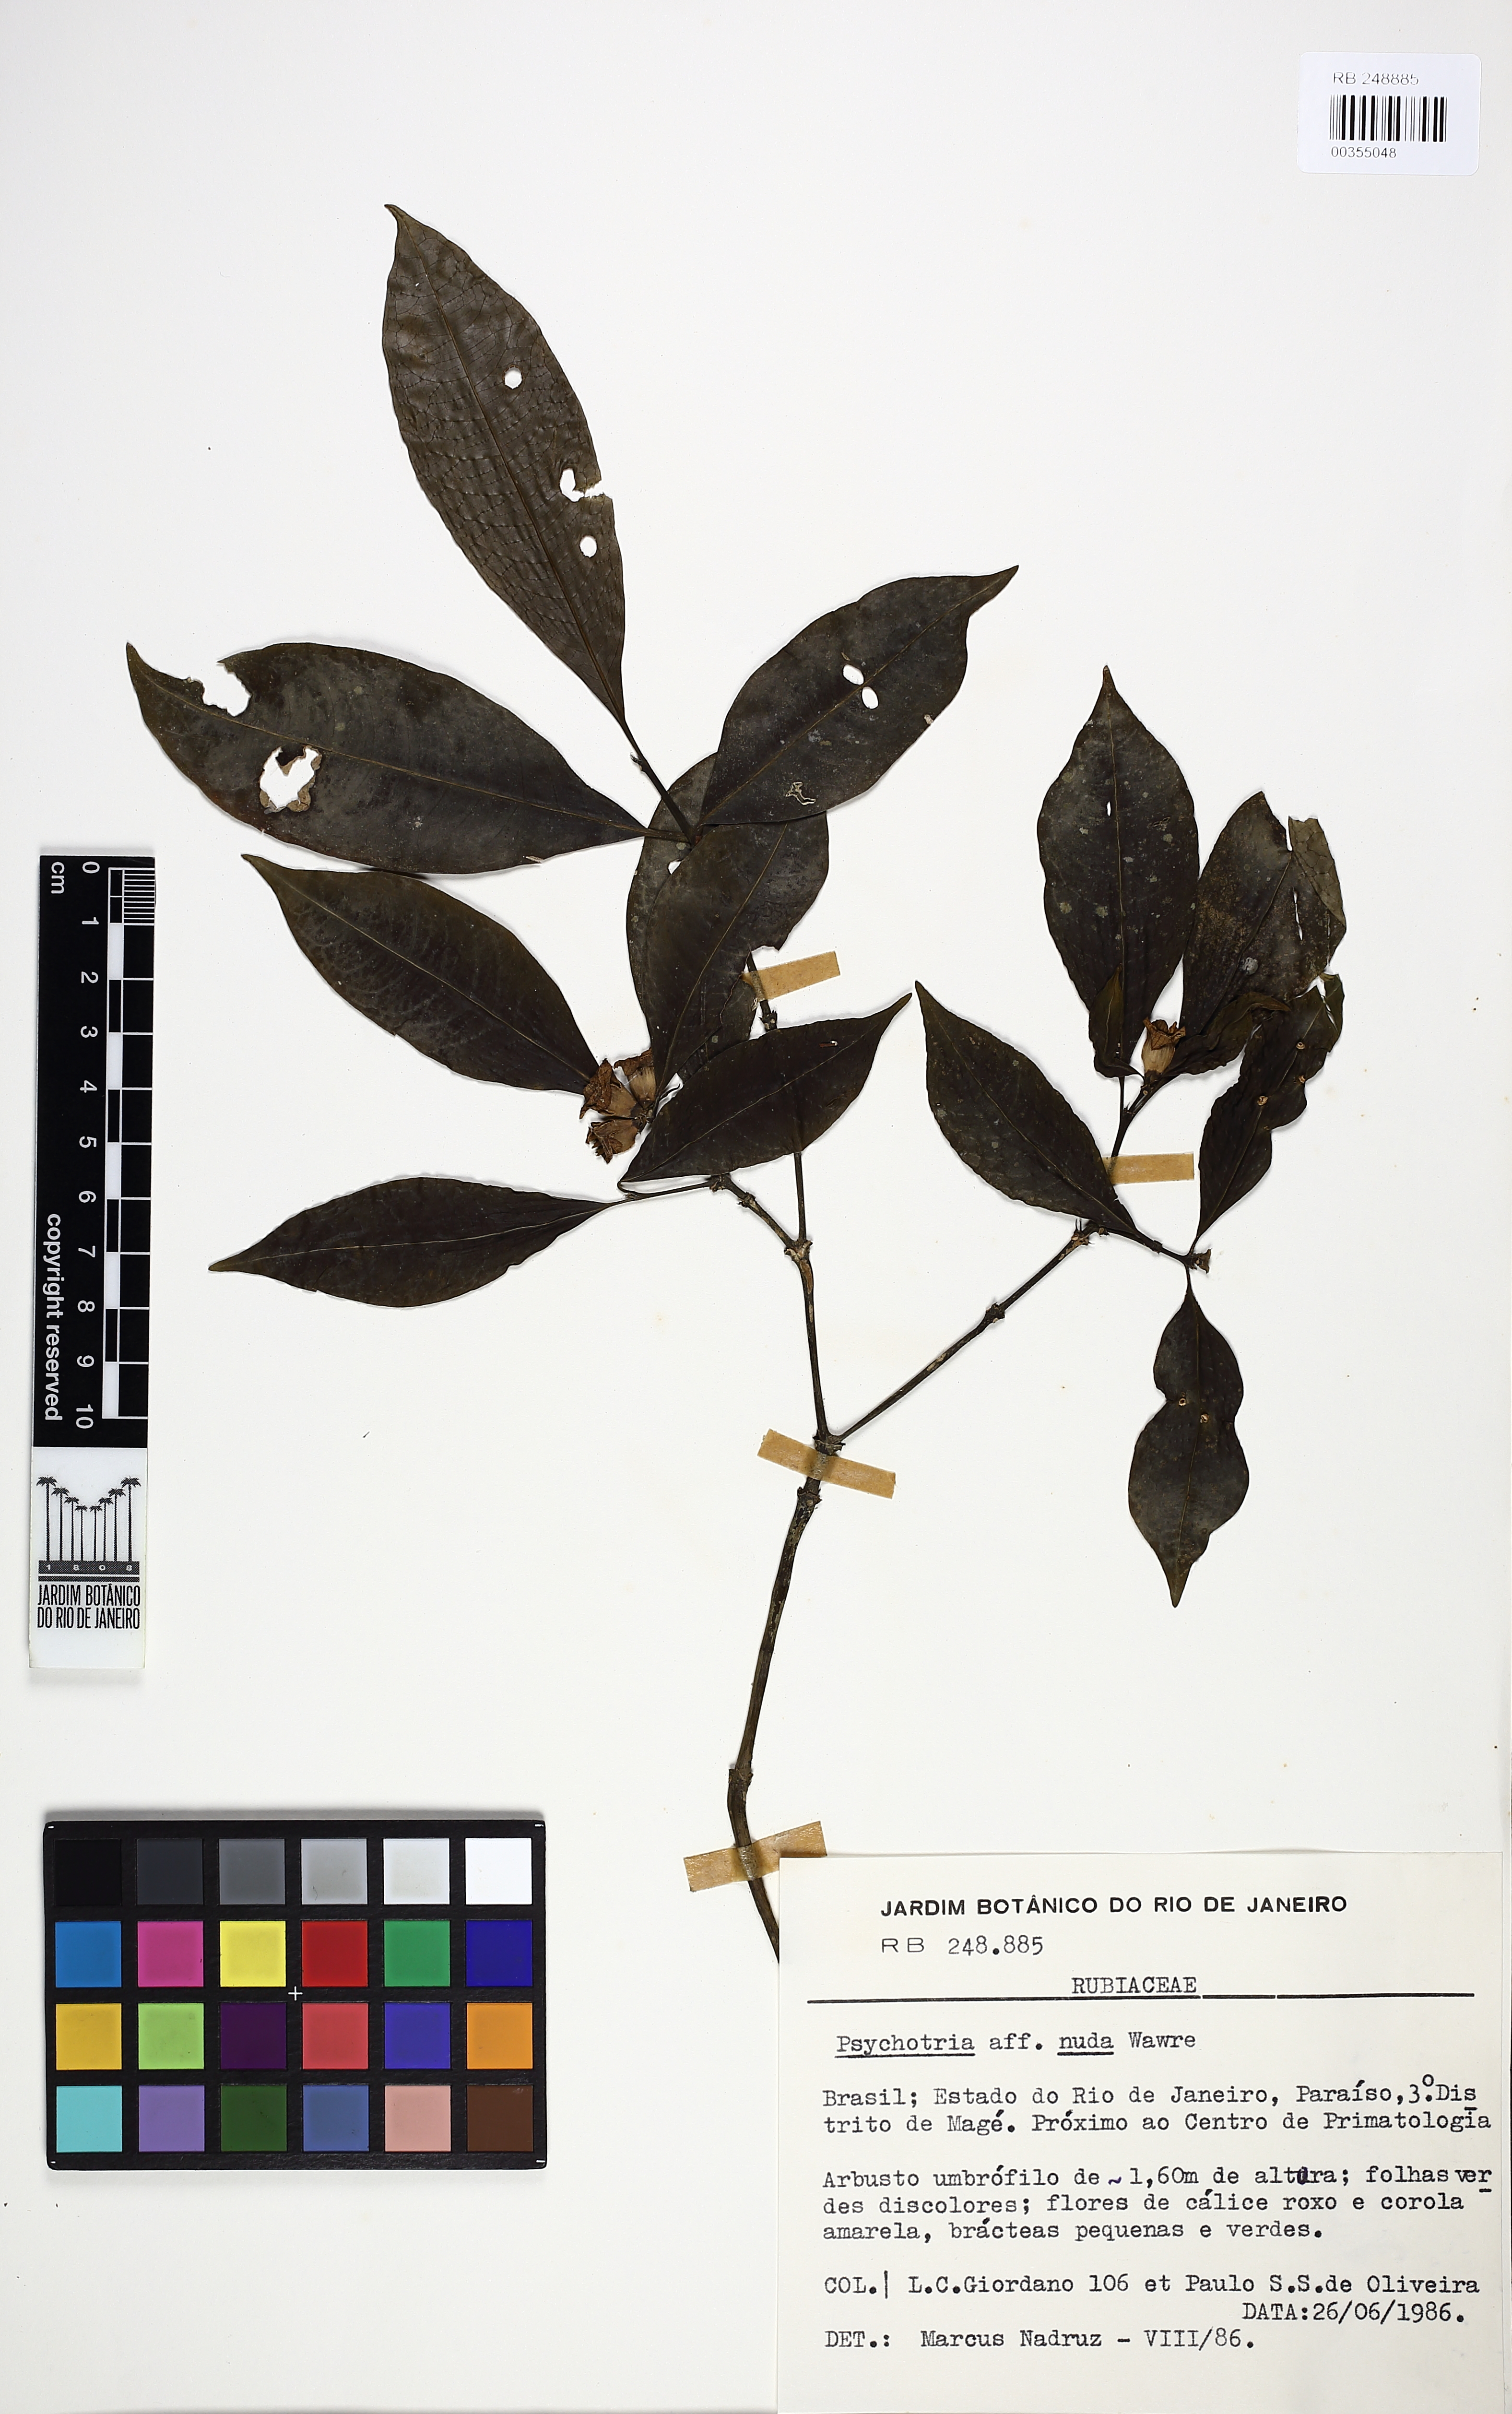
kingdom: Plantae
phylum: Tracheophyta
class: Magnoliopsida
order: Gentianales
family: Rubiaceae
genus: Psychotria
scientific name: Psychotria nuda
